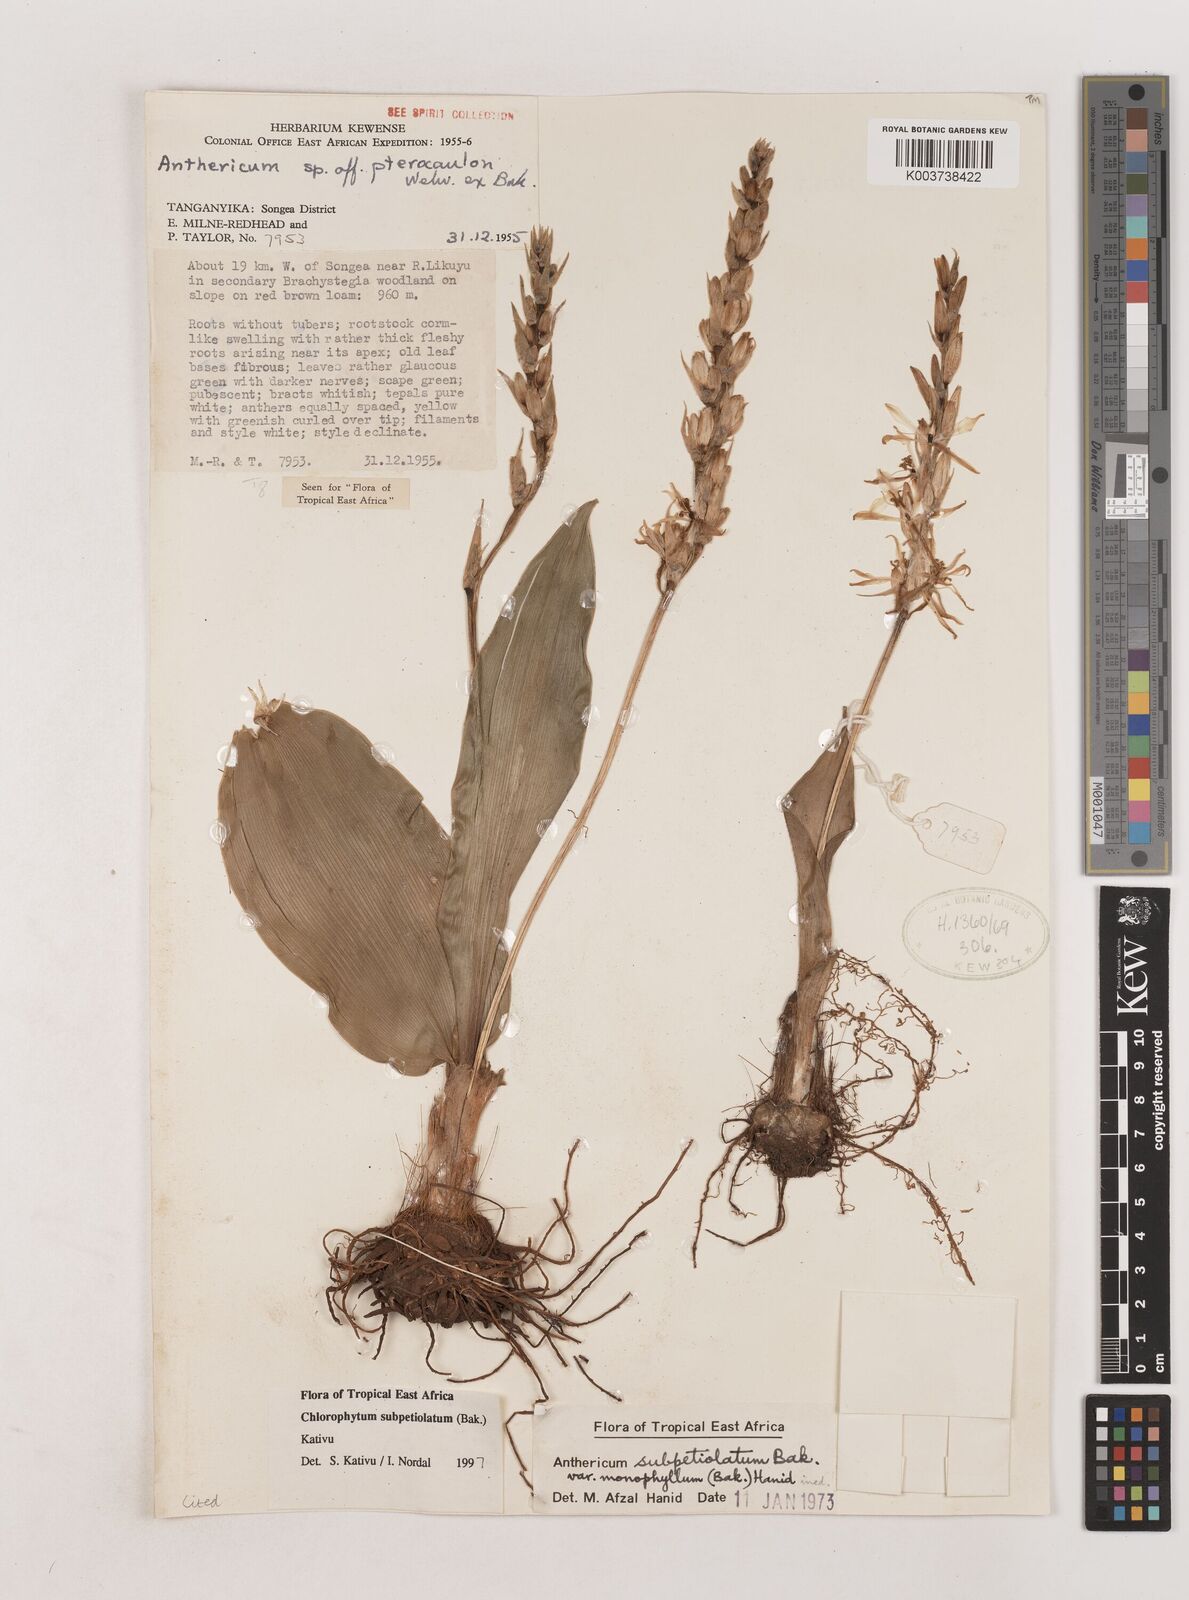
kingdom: Plantae
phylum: Tracheophyta
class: Liliopsida
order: Asparagales
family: Asparagaceae
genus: Chlorophytum
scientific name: Chlorophytum subpetiolatum
